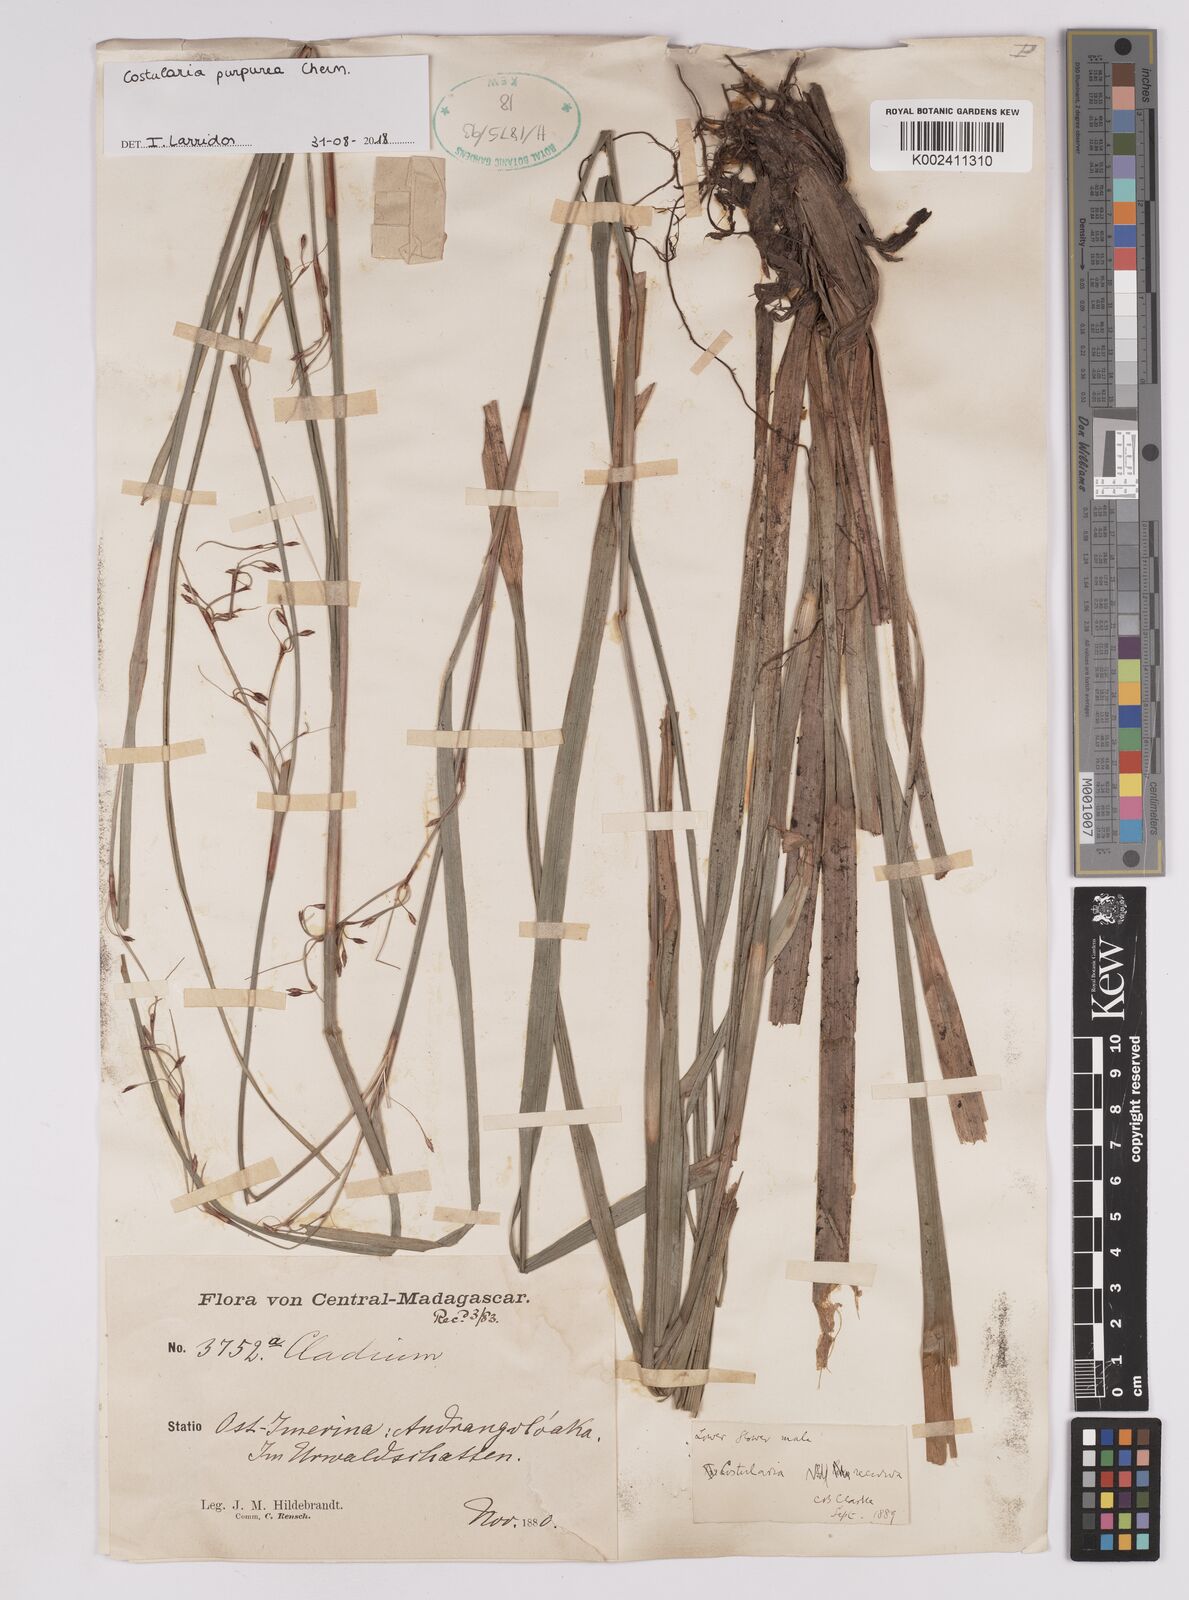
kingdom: Plantae
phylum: Tracheophyta
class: Liliopsida
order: Poales
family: Cyperaceae
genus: Costularia
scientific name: Costularia purpurea
